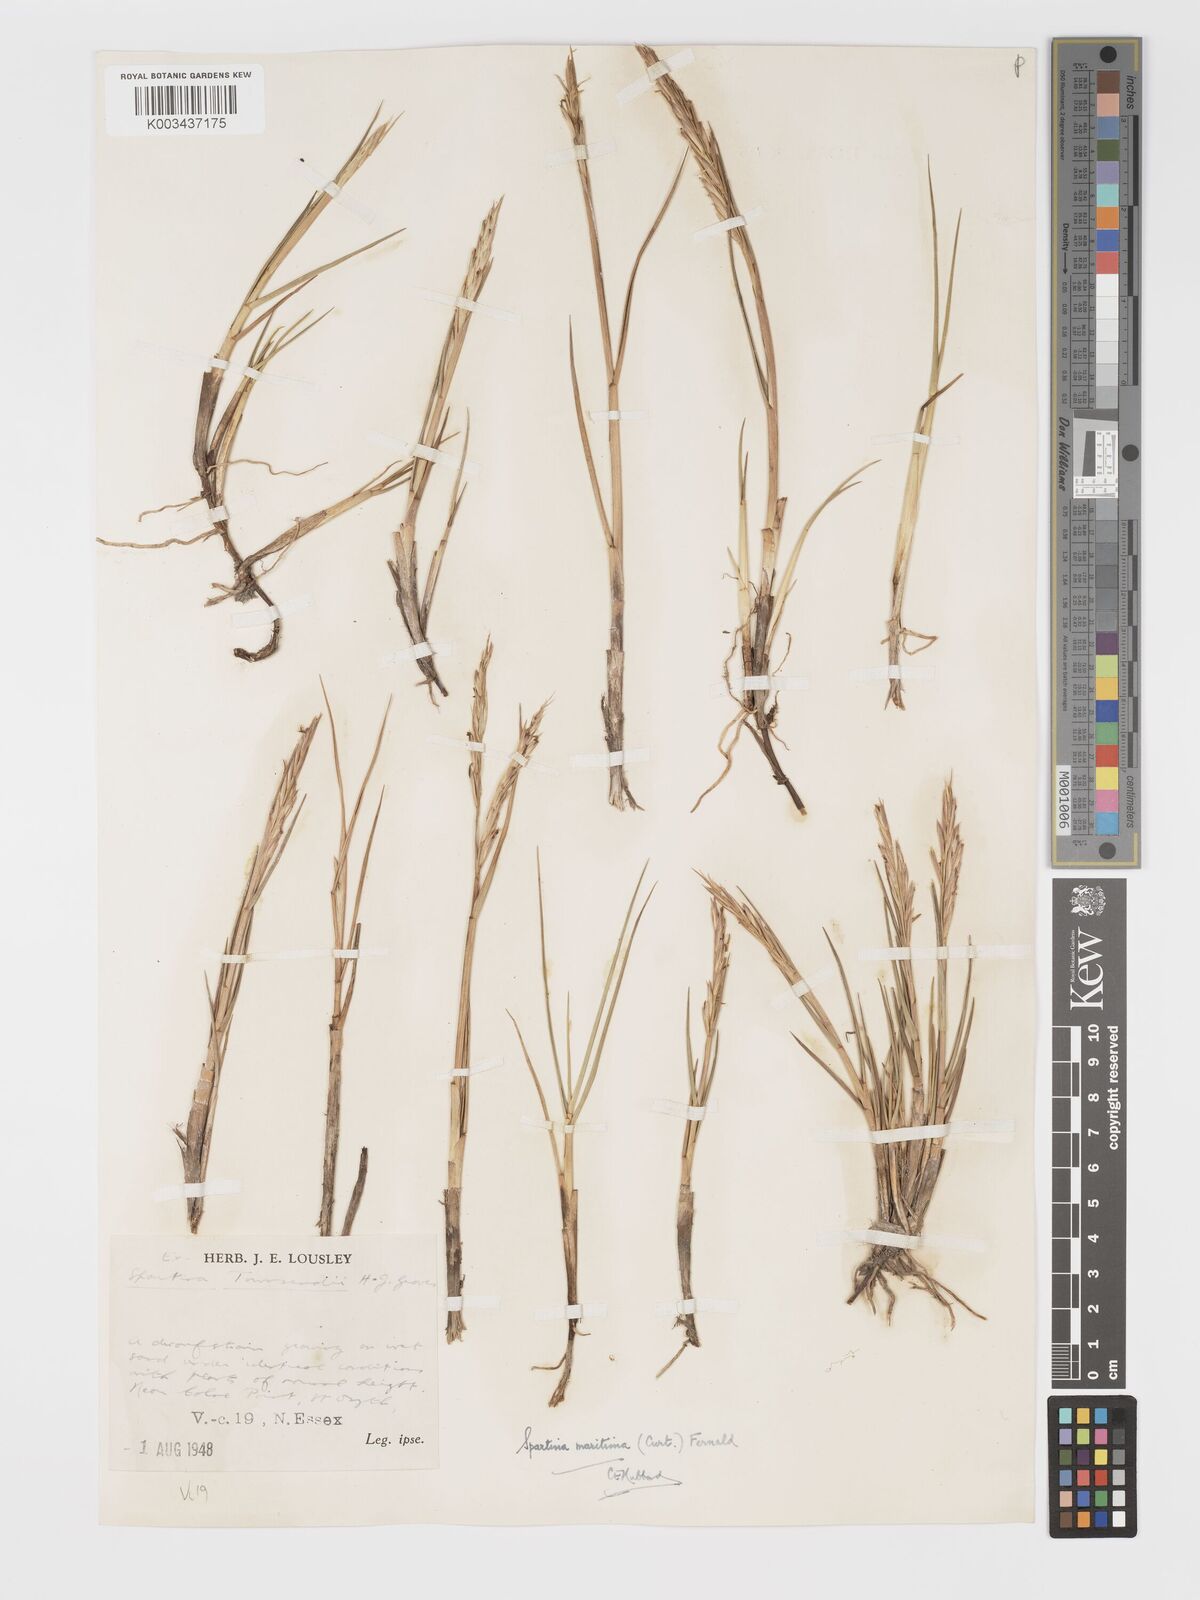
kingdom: Plantae
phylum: Tracheophyta
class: Liliopsida
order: Poales
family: Poaceae
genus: Sporobolus
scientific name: Sporobolus maritimus
